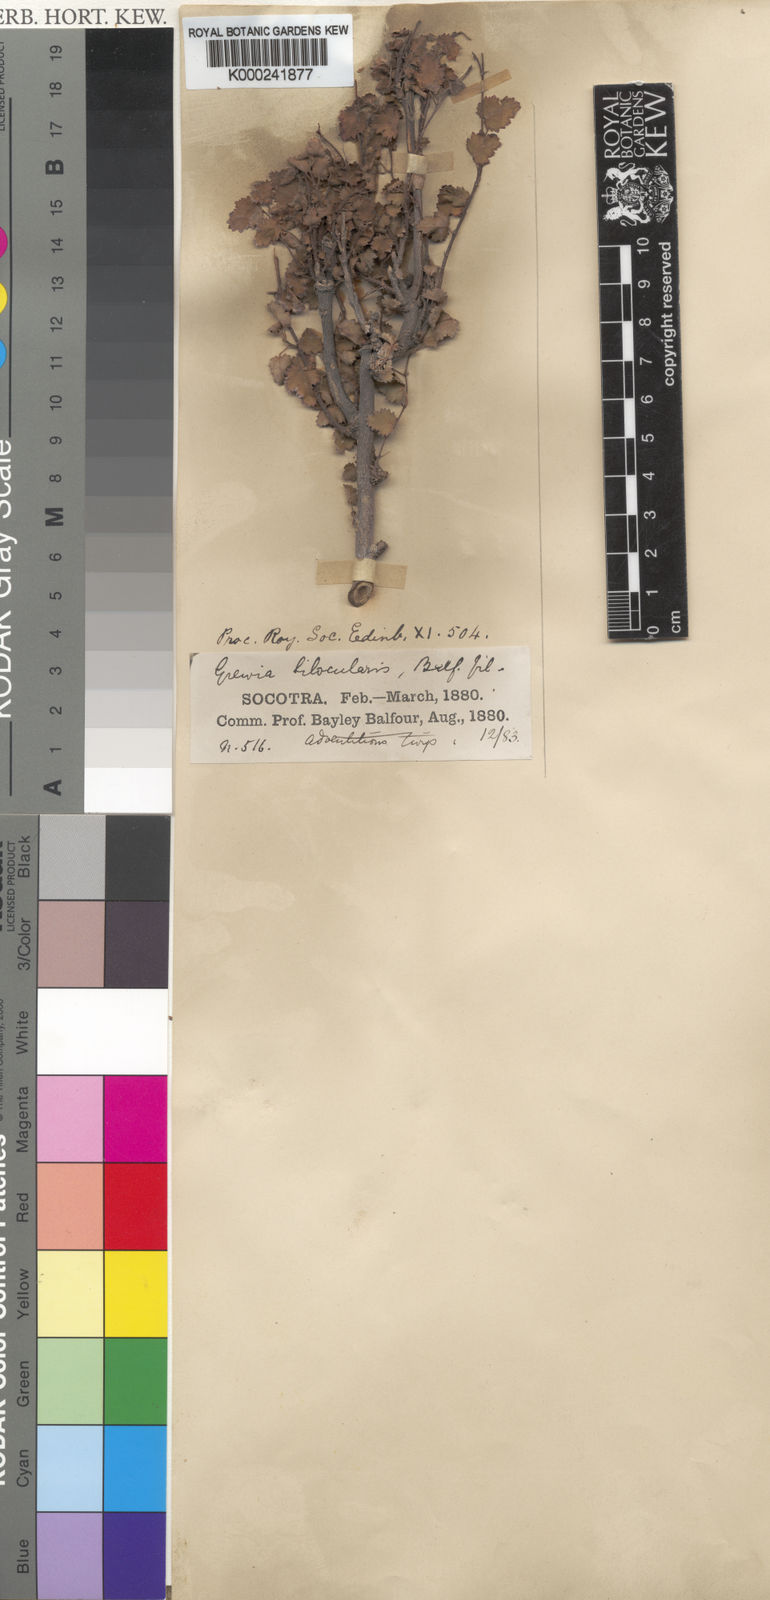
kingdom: Plantae
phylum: Tracheophyta
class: Magnoliopsida
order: Malvales
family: Malvaceae
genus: Grewia
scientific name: Grewia bilocularis
